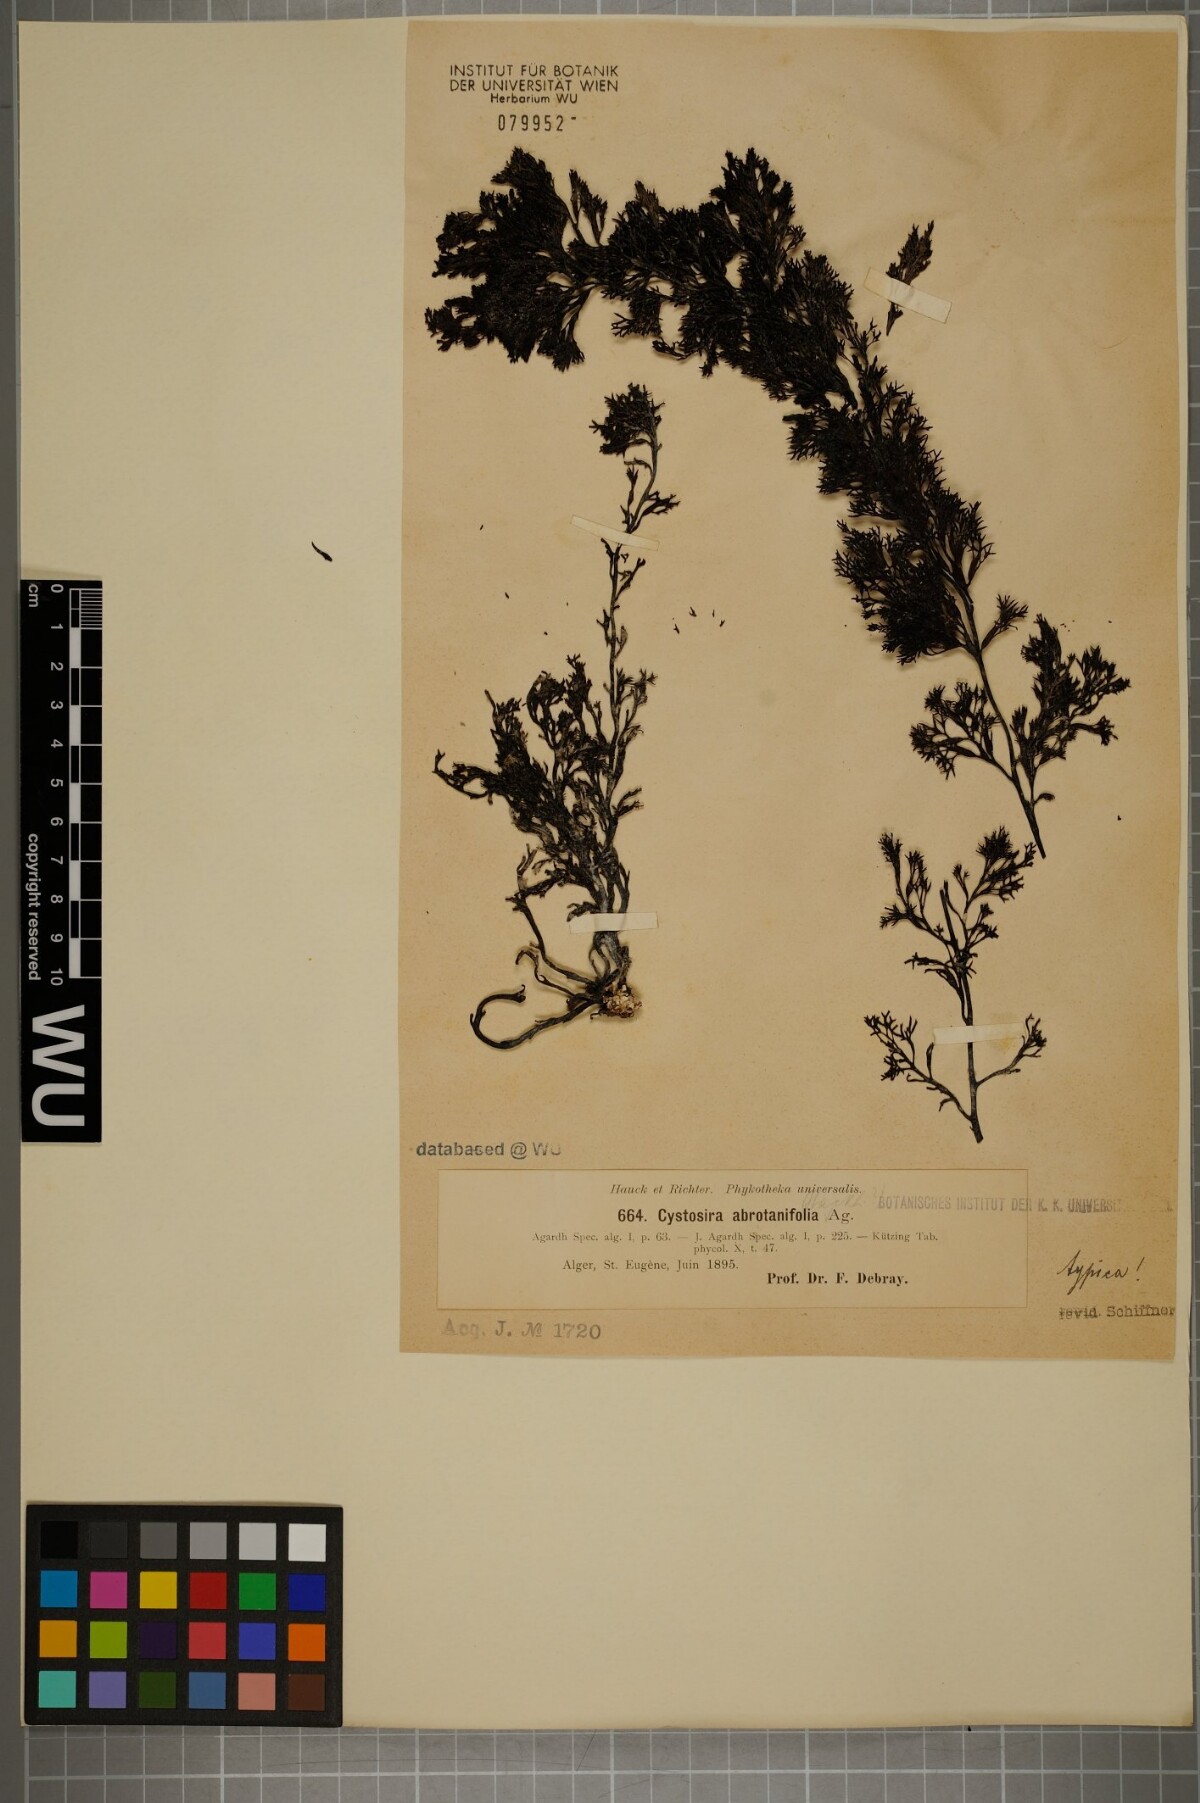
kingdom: Chromista
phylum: Ochrophyta
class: Phaeophyceae
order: Fucales
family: Sargassaceae
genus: Cystoseira
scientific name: Cystoseira foeniculacea
